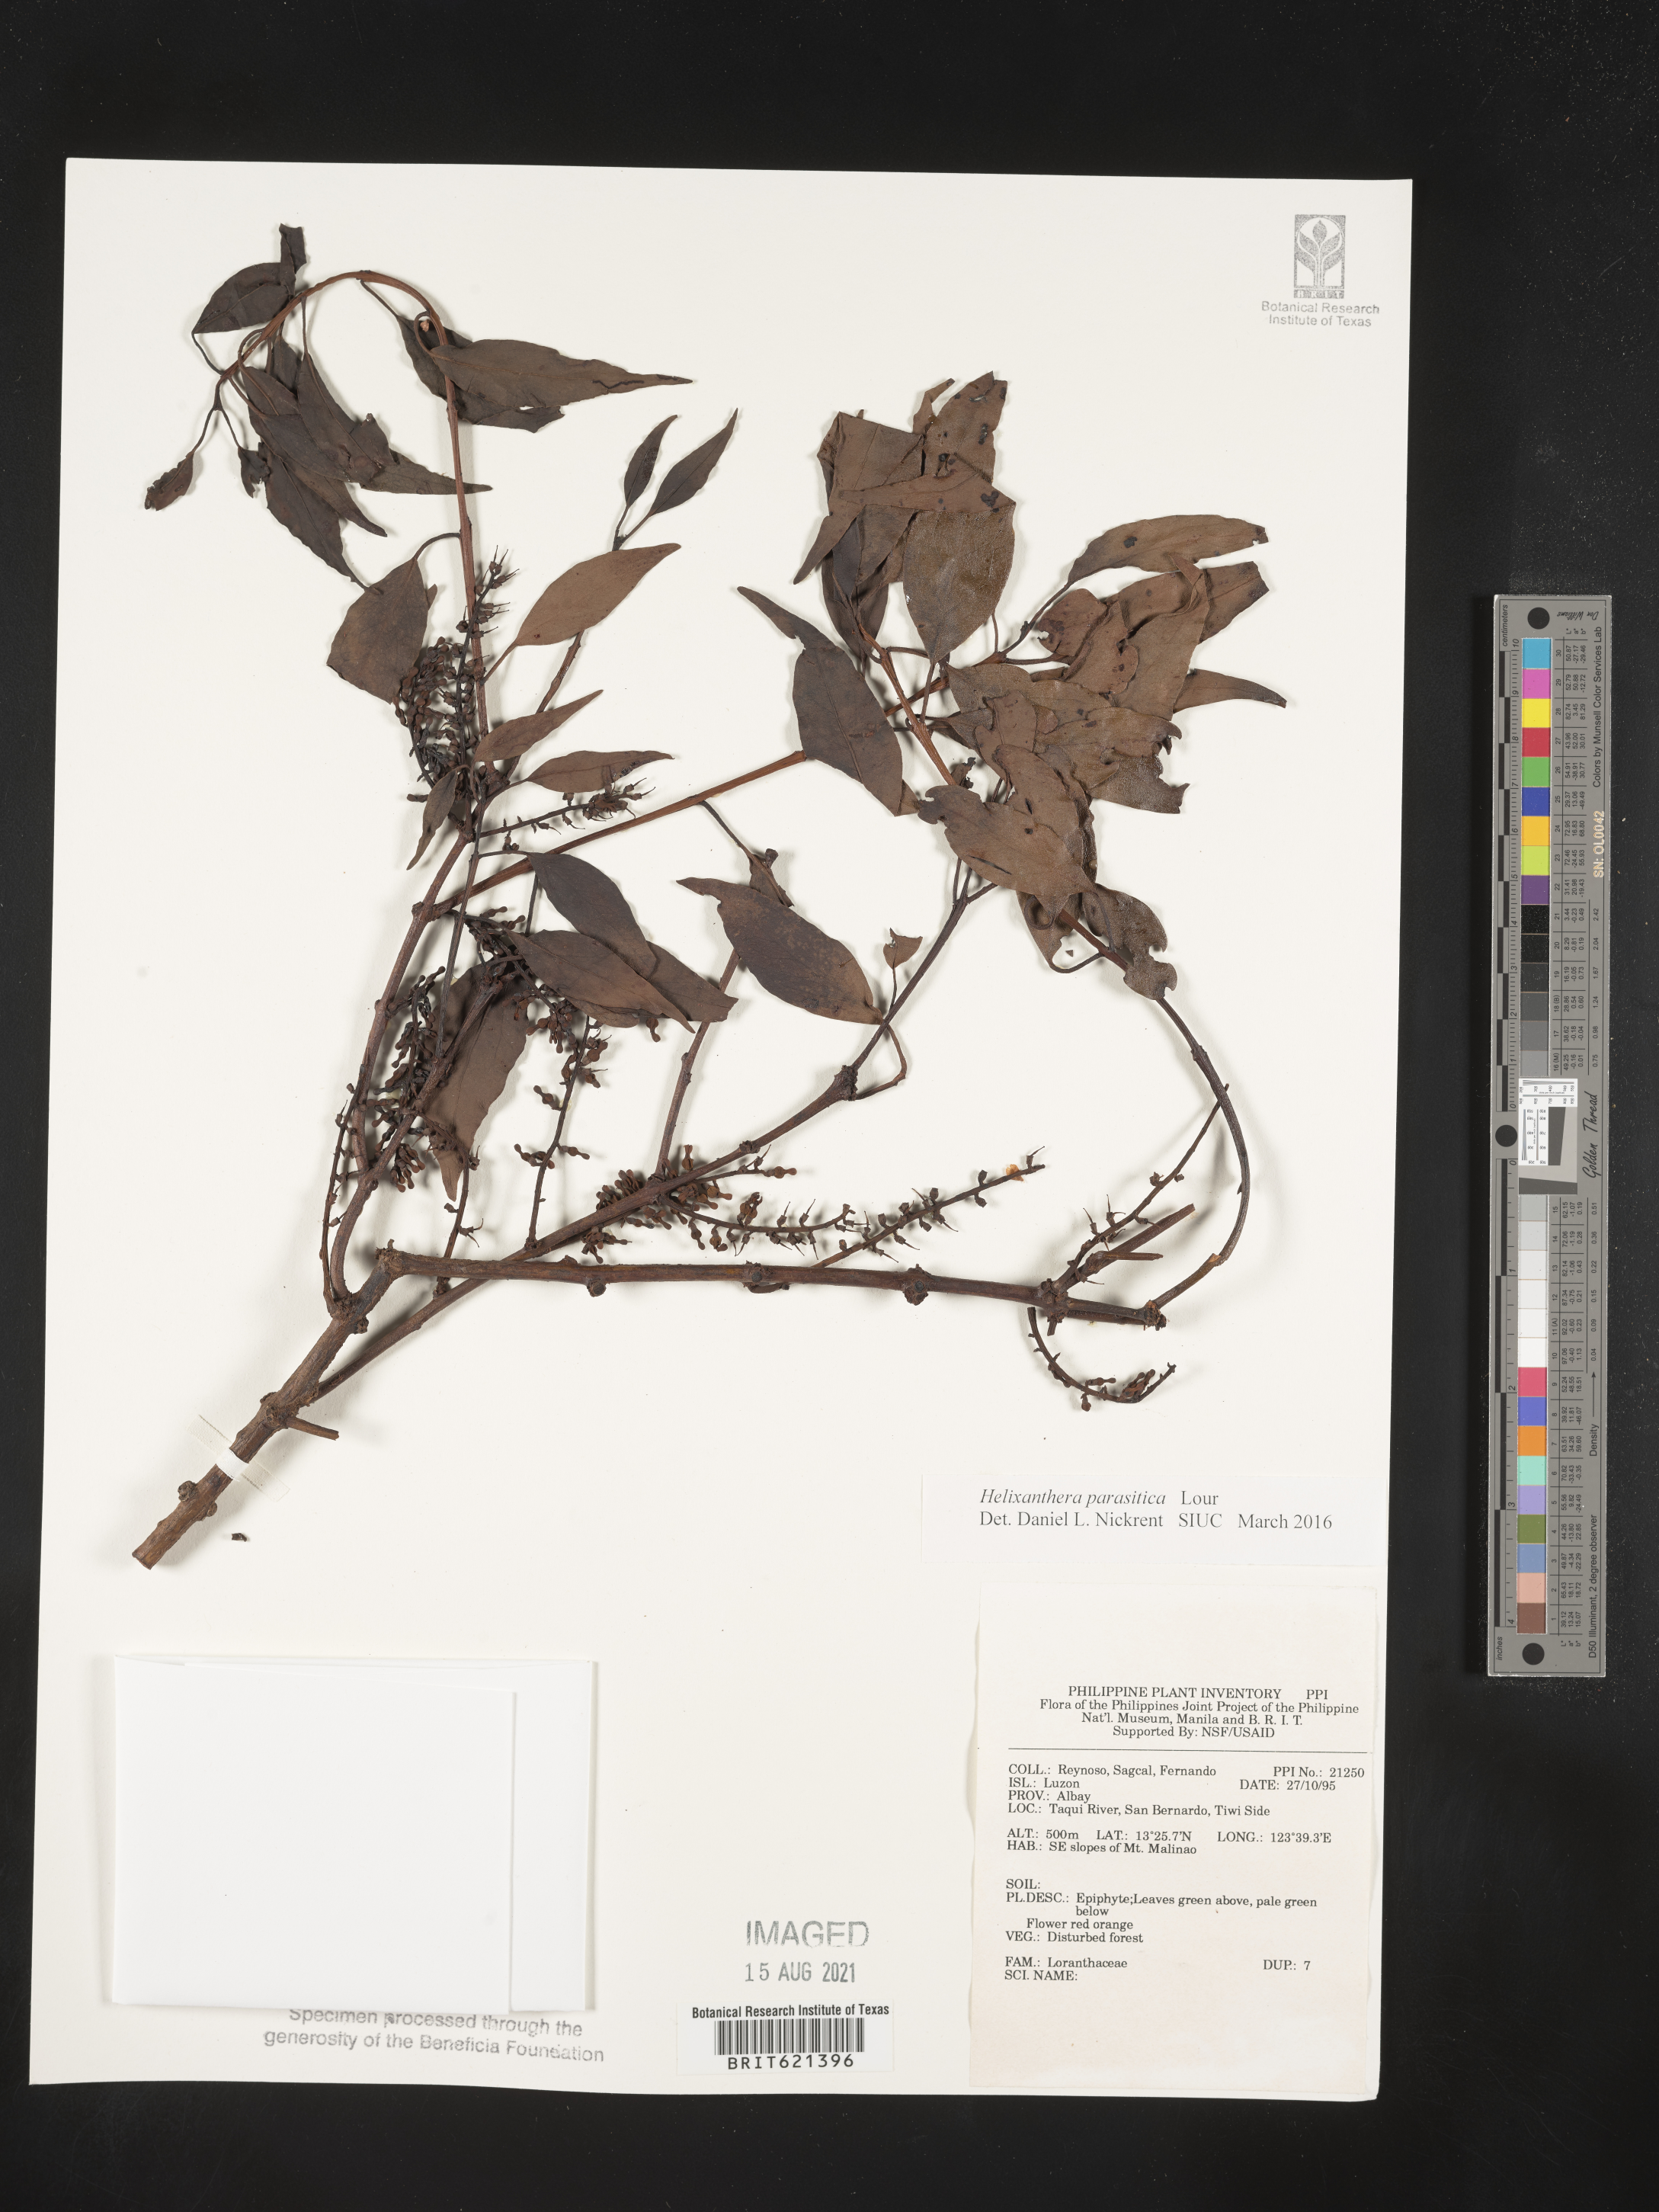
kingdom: Plantae
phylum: Tracheophyta
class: Magnoliopsida
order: Santalales
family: Loranthaceae
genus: Helixanthera
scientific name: Helixanthera parasitica
